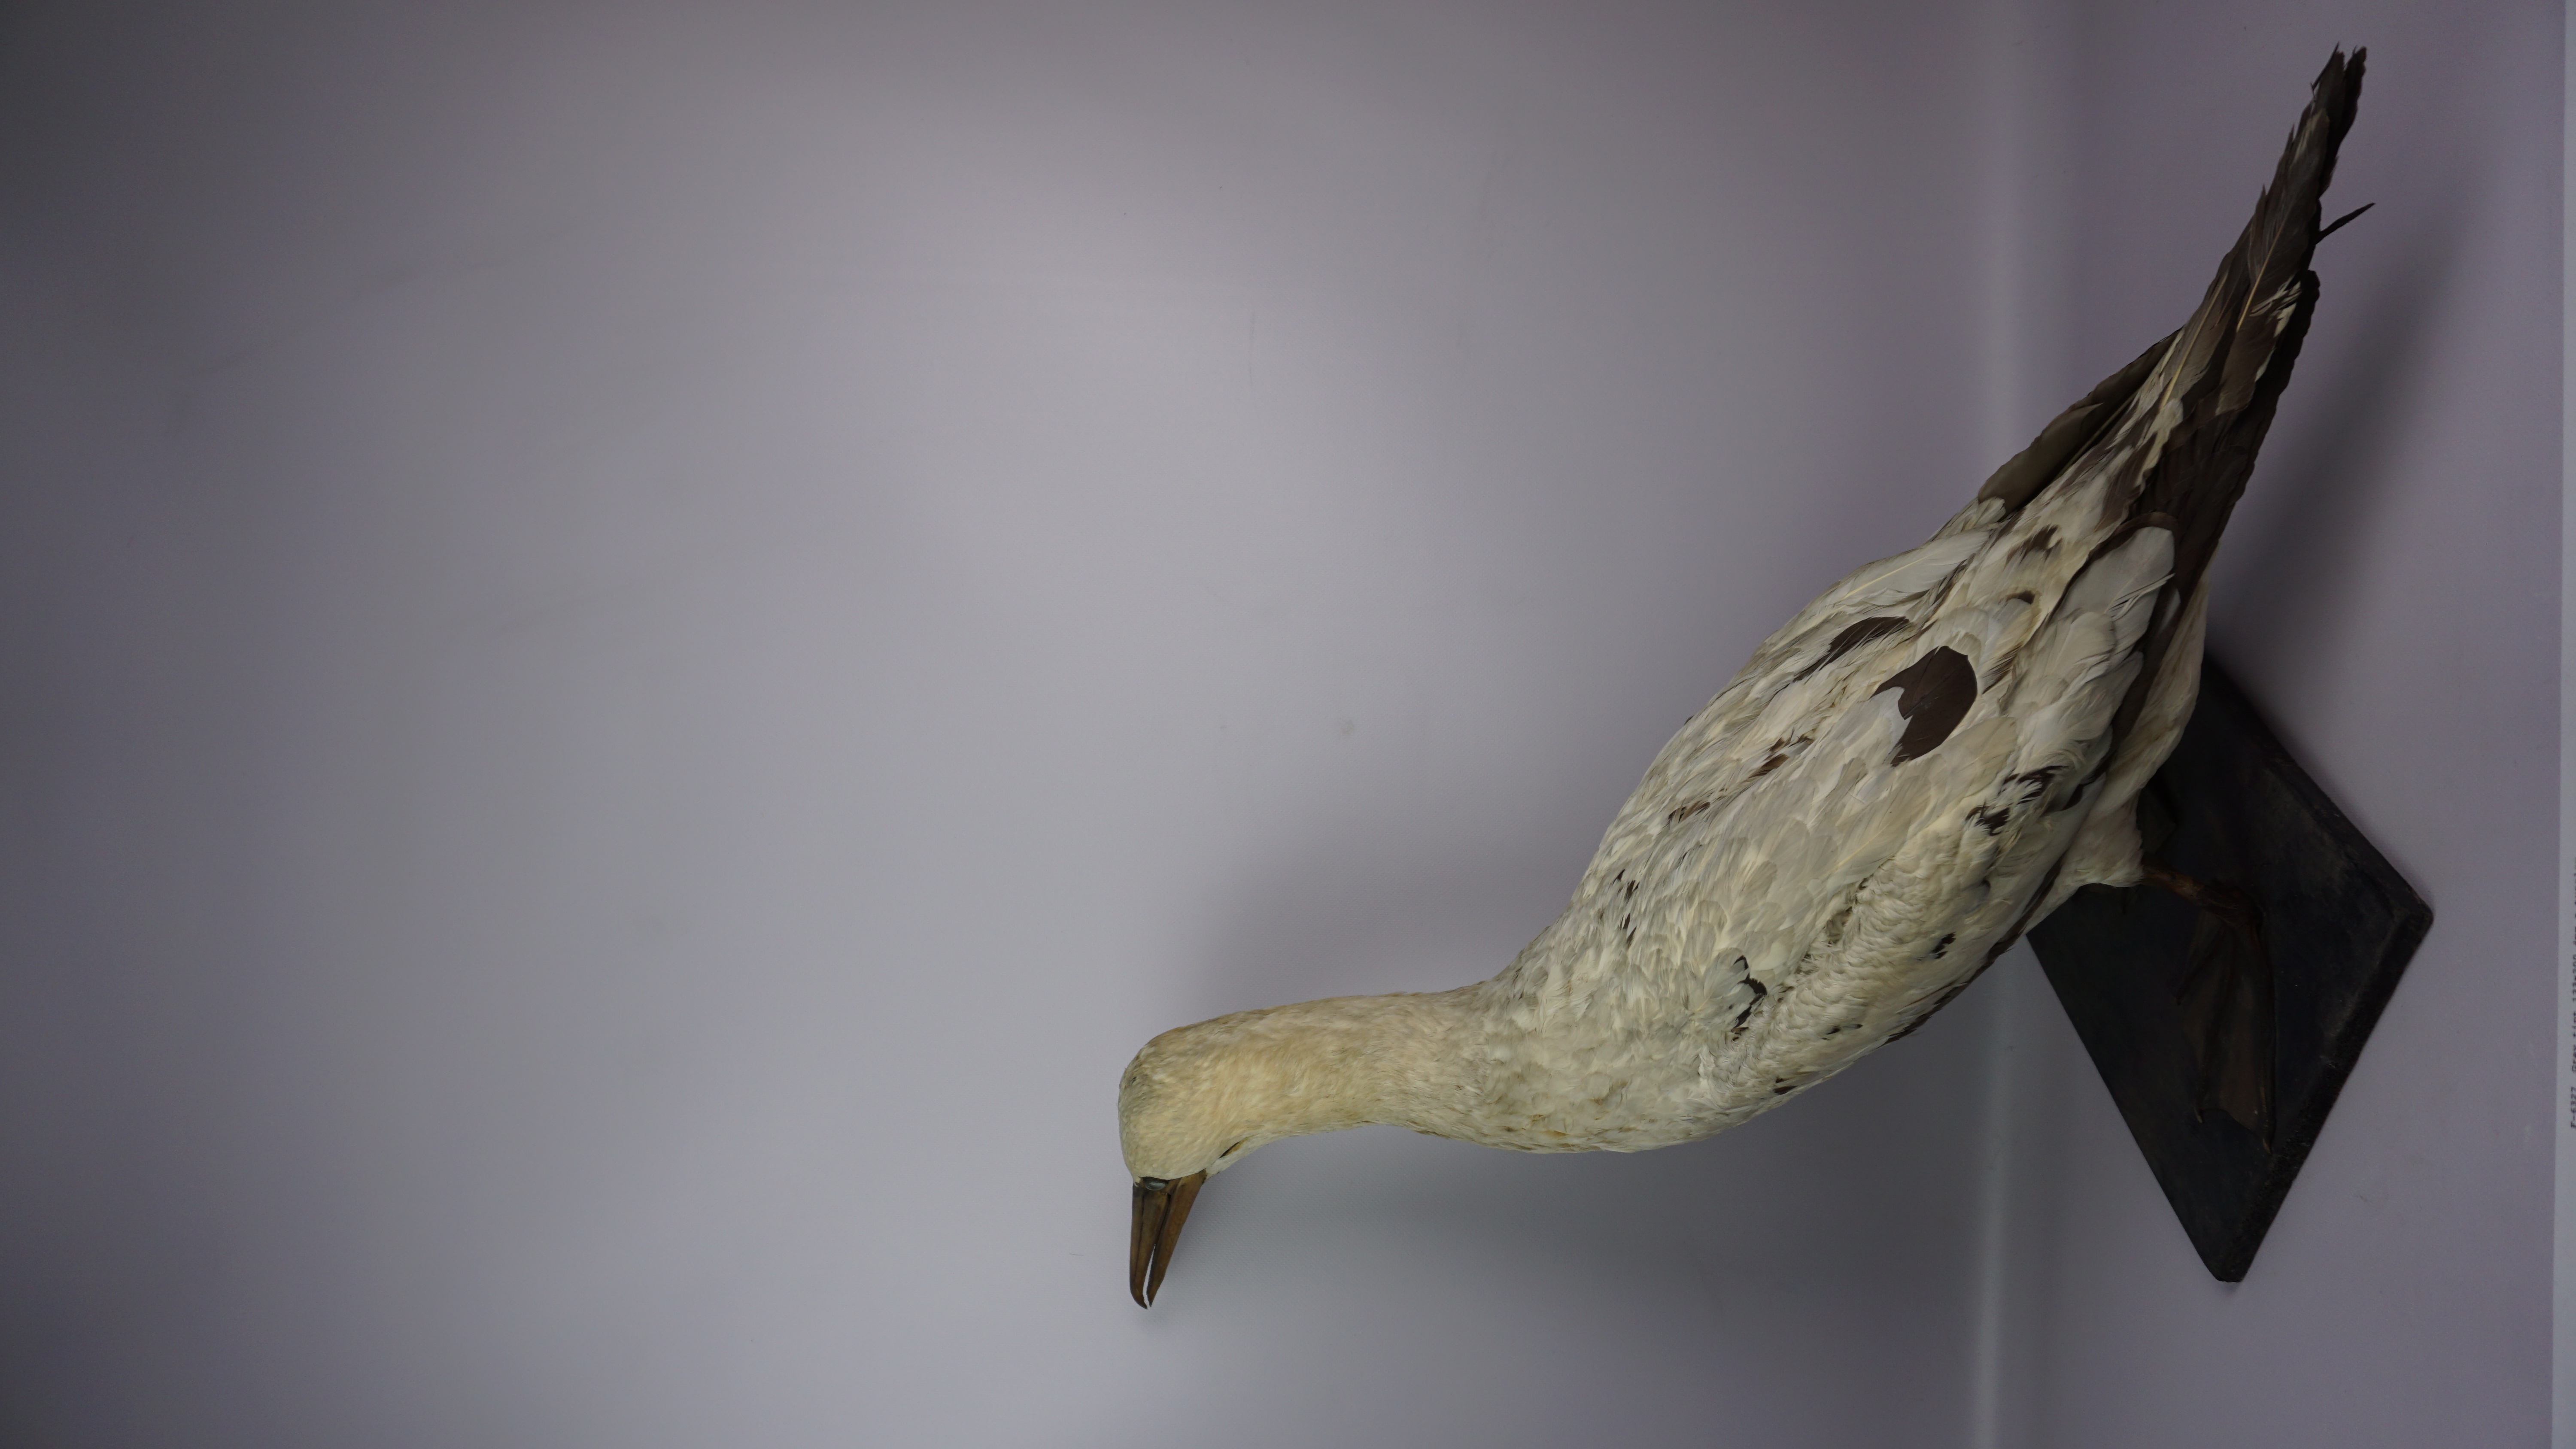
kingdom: Animalia
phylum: Chordata
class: Aves
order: Suliformes
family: Sulidae
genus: Morus
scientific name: Morus bassanus
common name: Northern gannet
